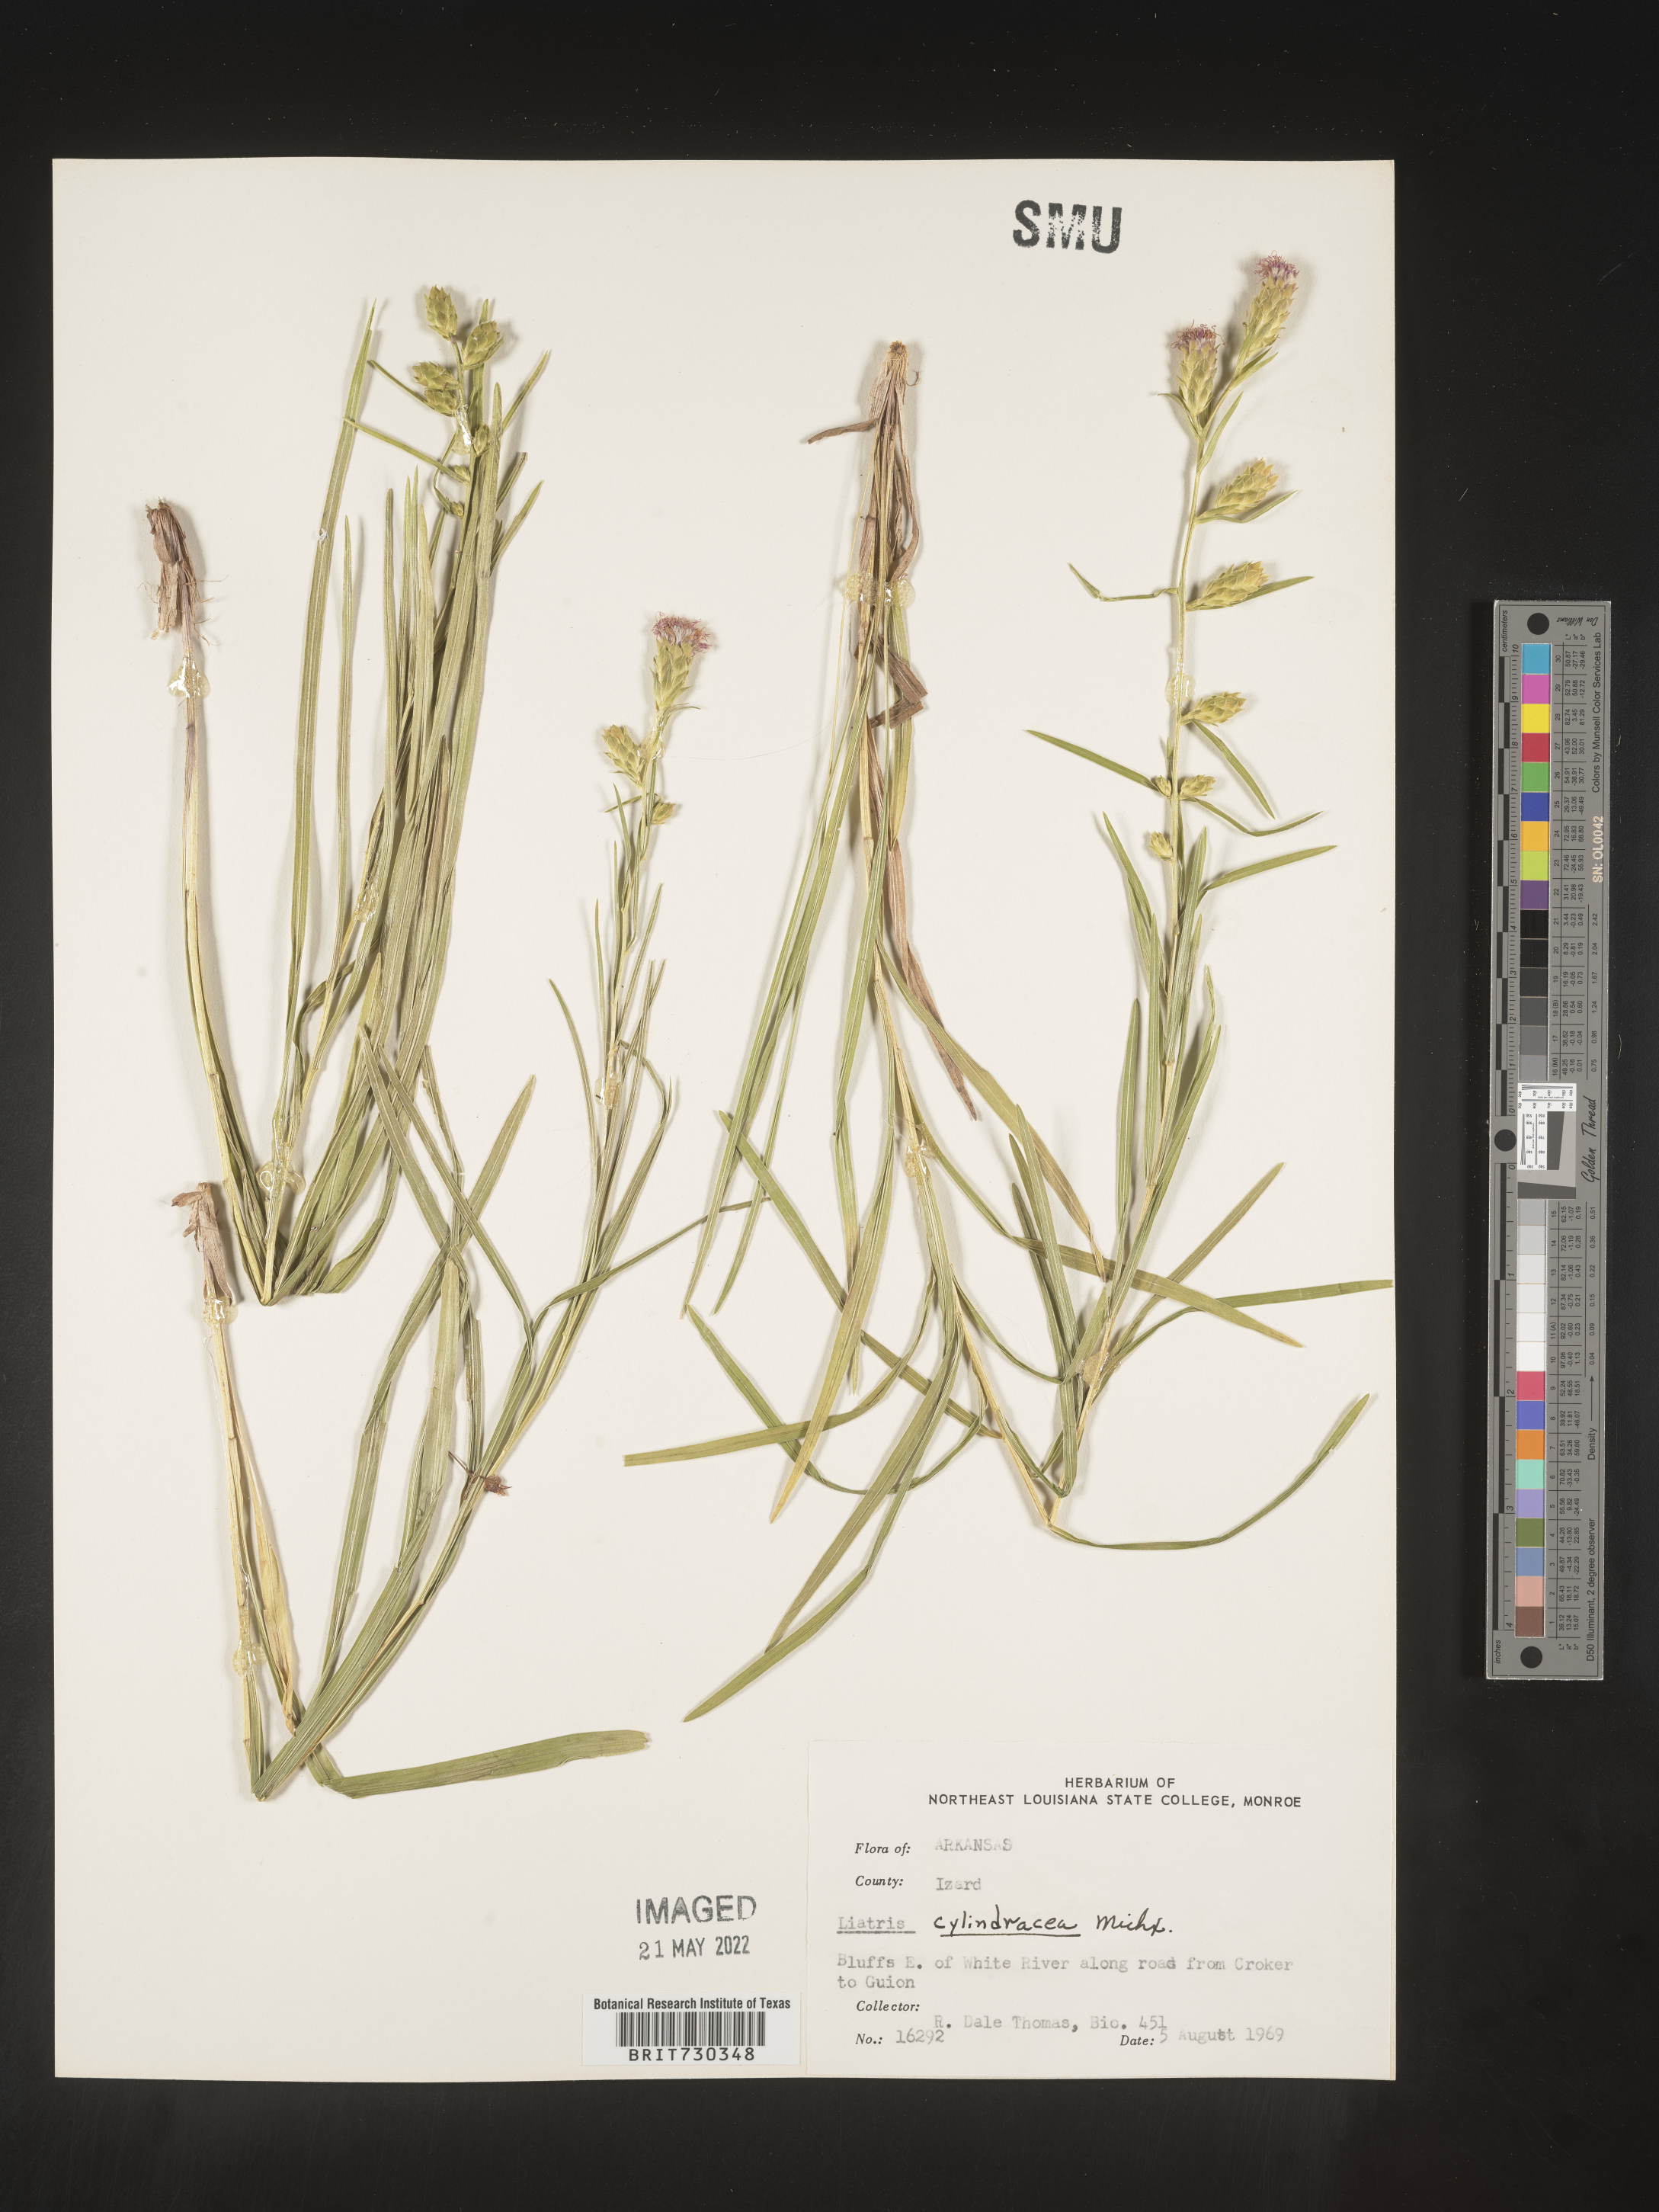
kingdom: Plantae
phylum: Tracheophyta
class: Magnoliopsida
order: Asterales
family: Asteraceae
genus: Liatris
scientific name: Liatris cylindracea
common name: Few-head blazingstar
